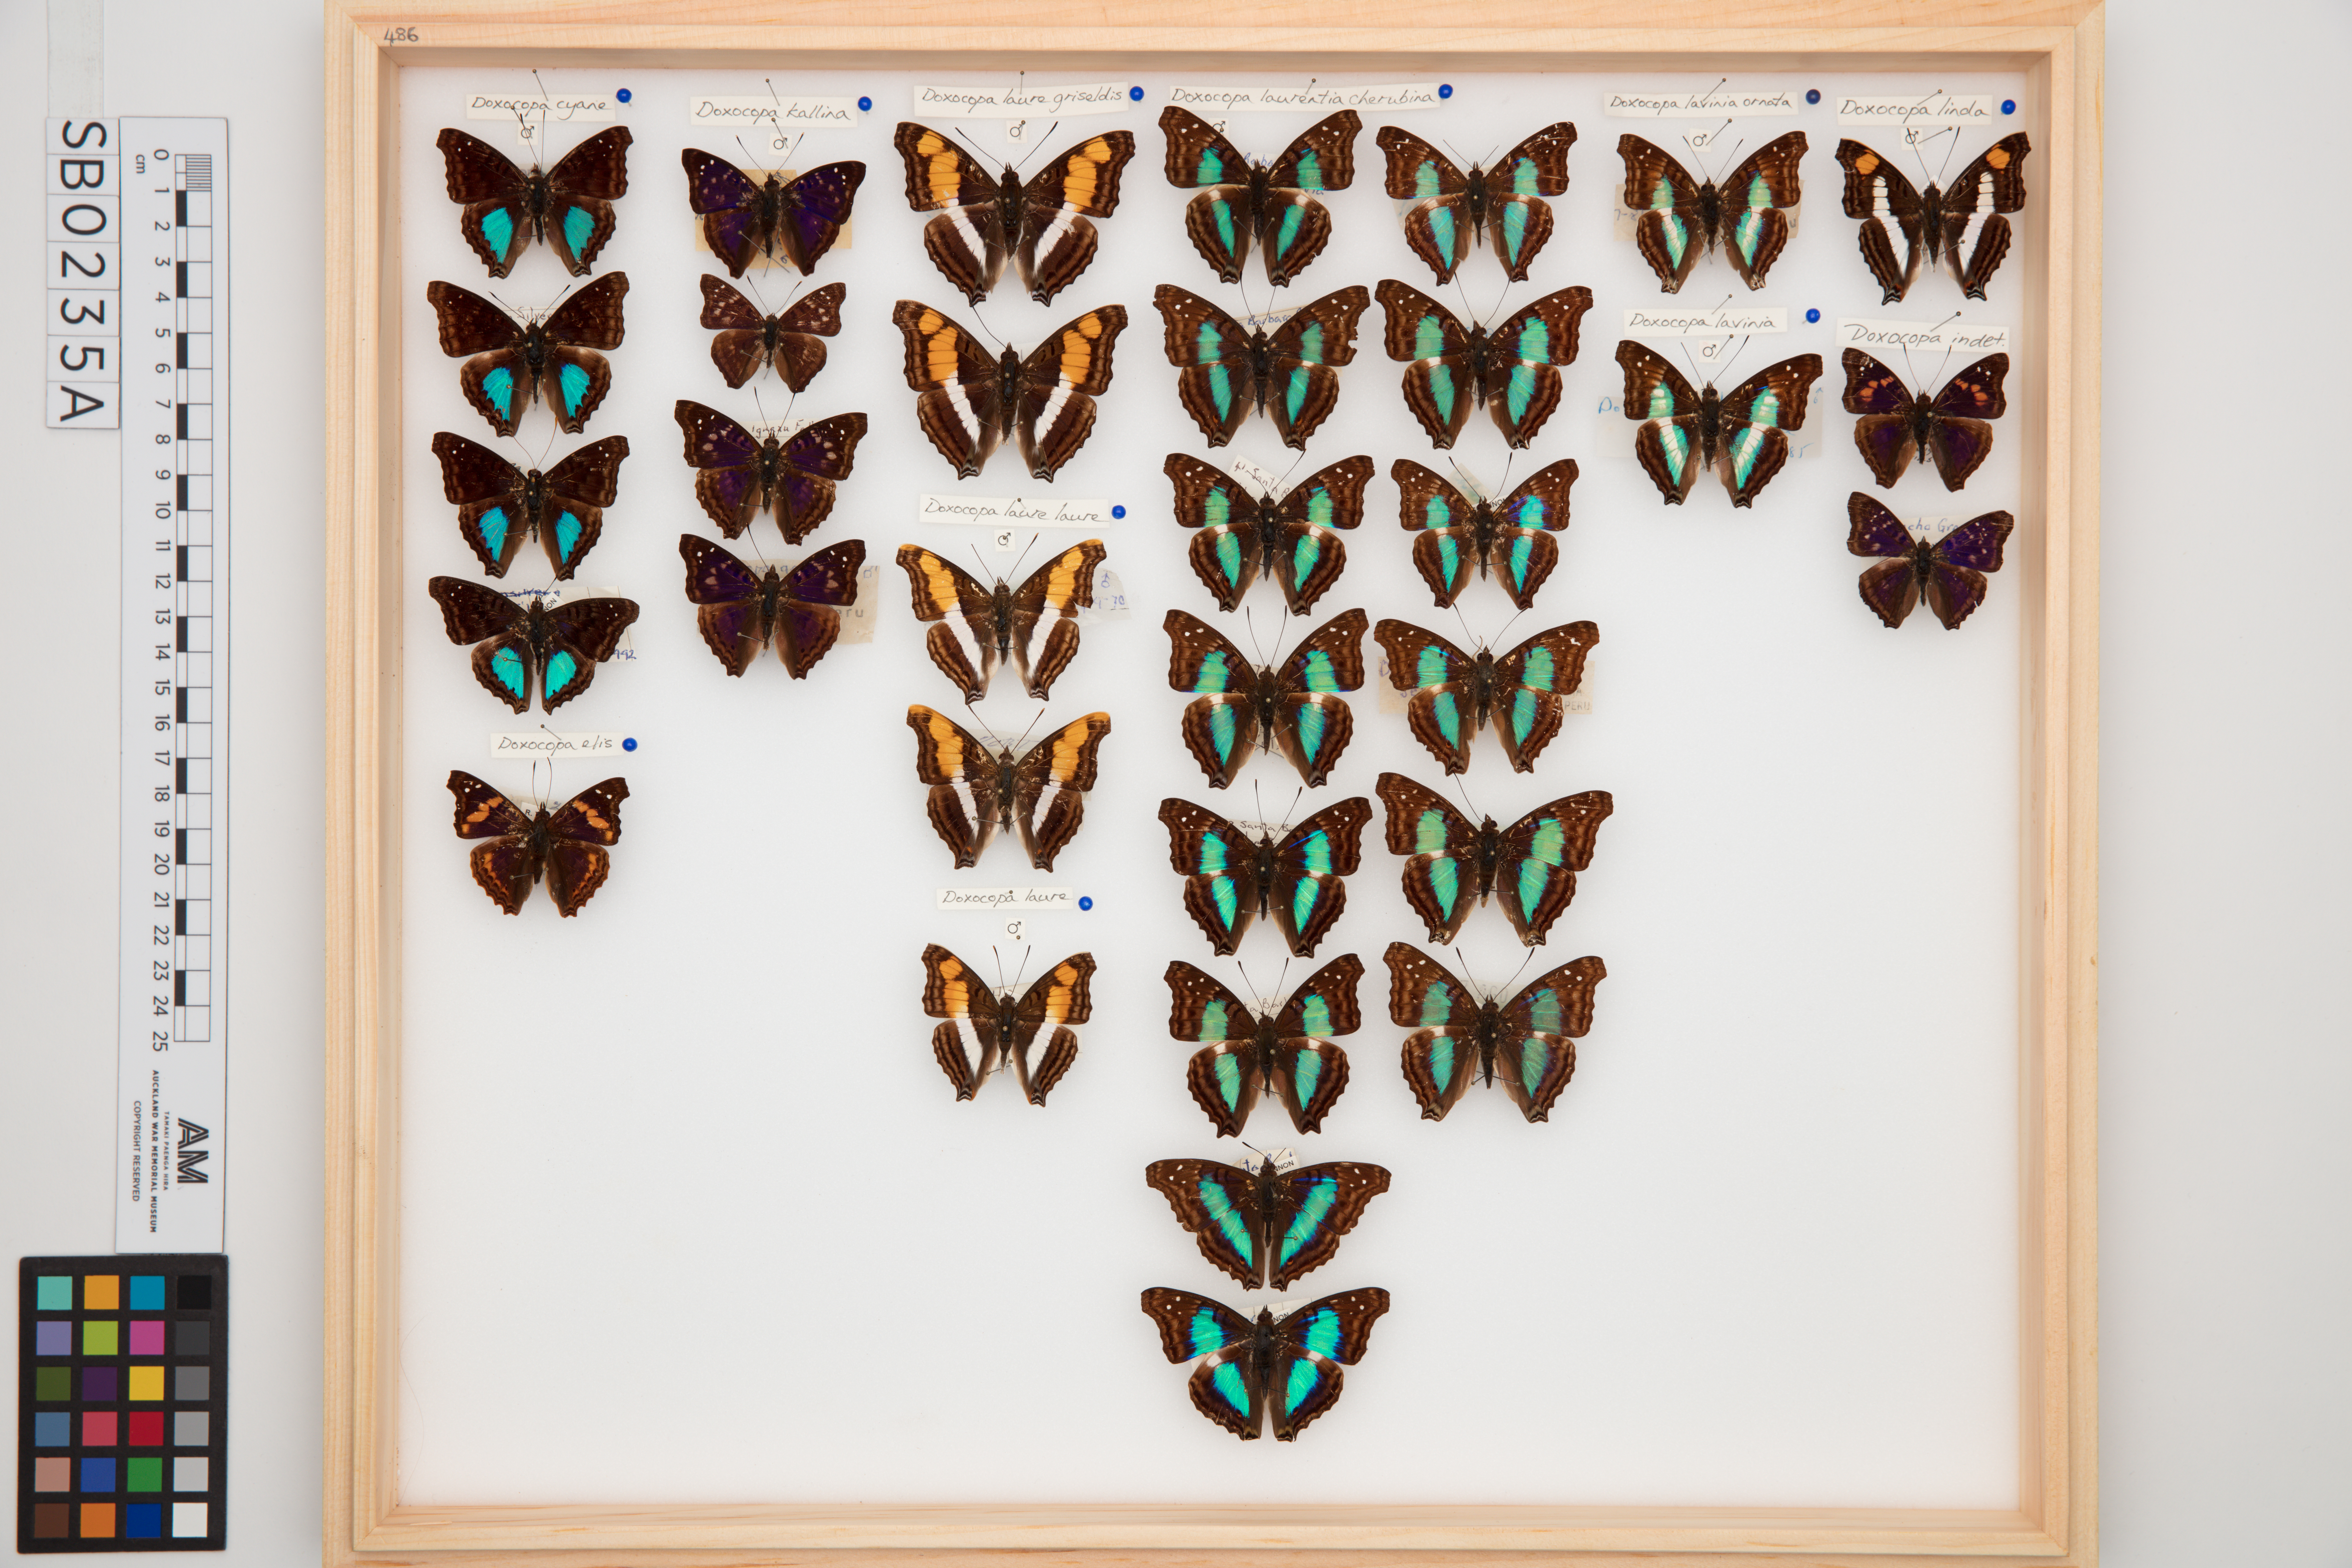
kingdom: Animalia
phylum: Arthropoda
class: Insecta
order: Lepidoptera
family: Nymphalidae
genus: Doxocopa
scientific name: Doxocopa laurentia
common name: Turquoise emperor
